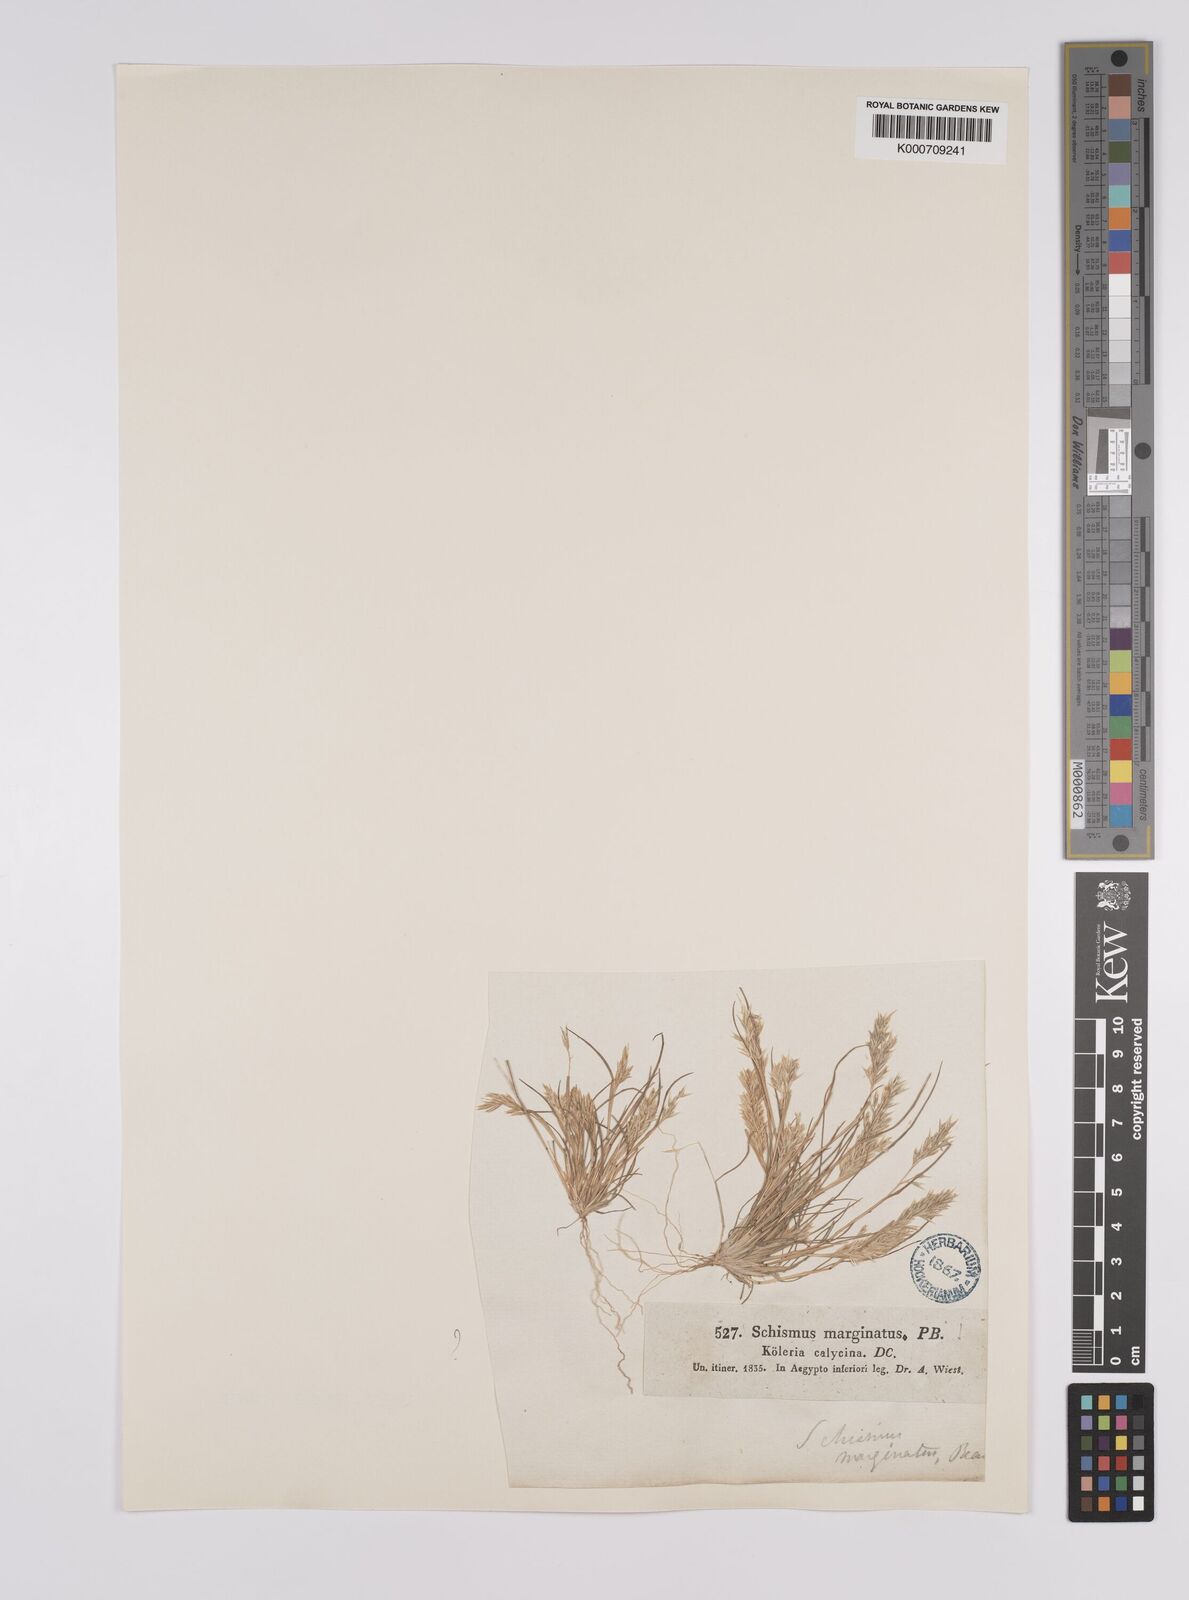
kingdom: Plantae
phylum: Tracheophyta
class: Liliopsida
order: Poales
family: Poaceae
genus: Schismus
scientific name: Schismus barbatus
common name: Kelch-grass
